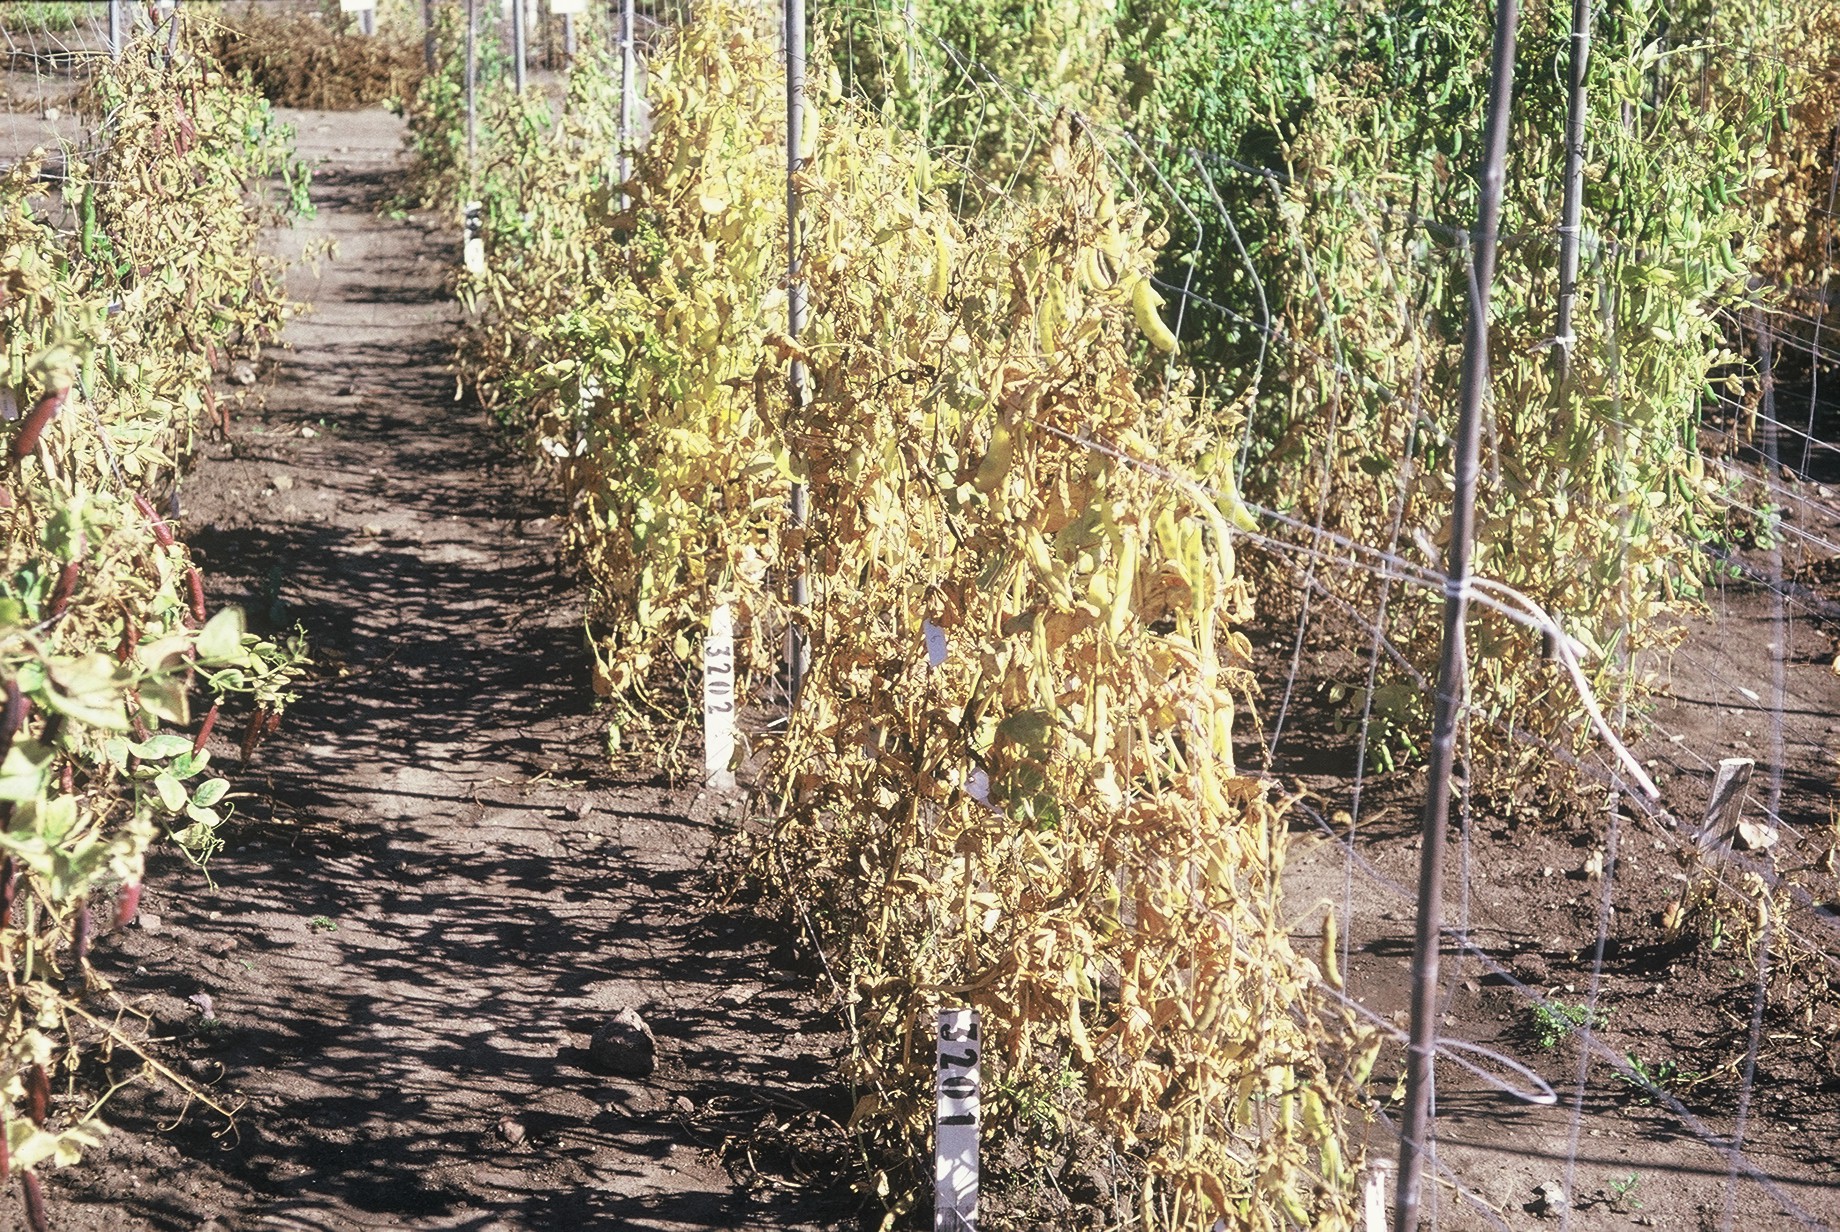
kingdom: Plantae
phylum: Tracheophyta
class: Magnoliopsida
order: Fabales
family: Fabaceae
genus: Lathyrus
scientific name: Lathyrus oleraceus
